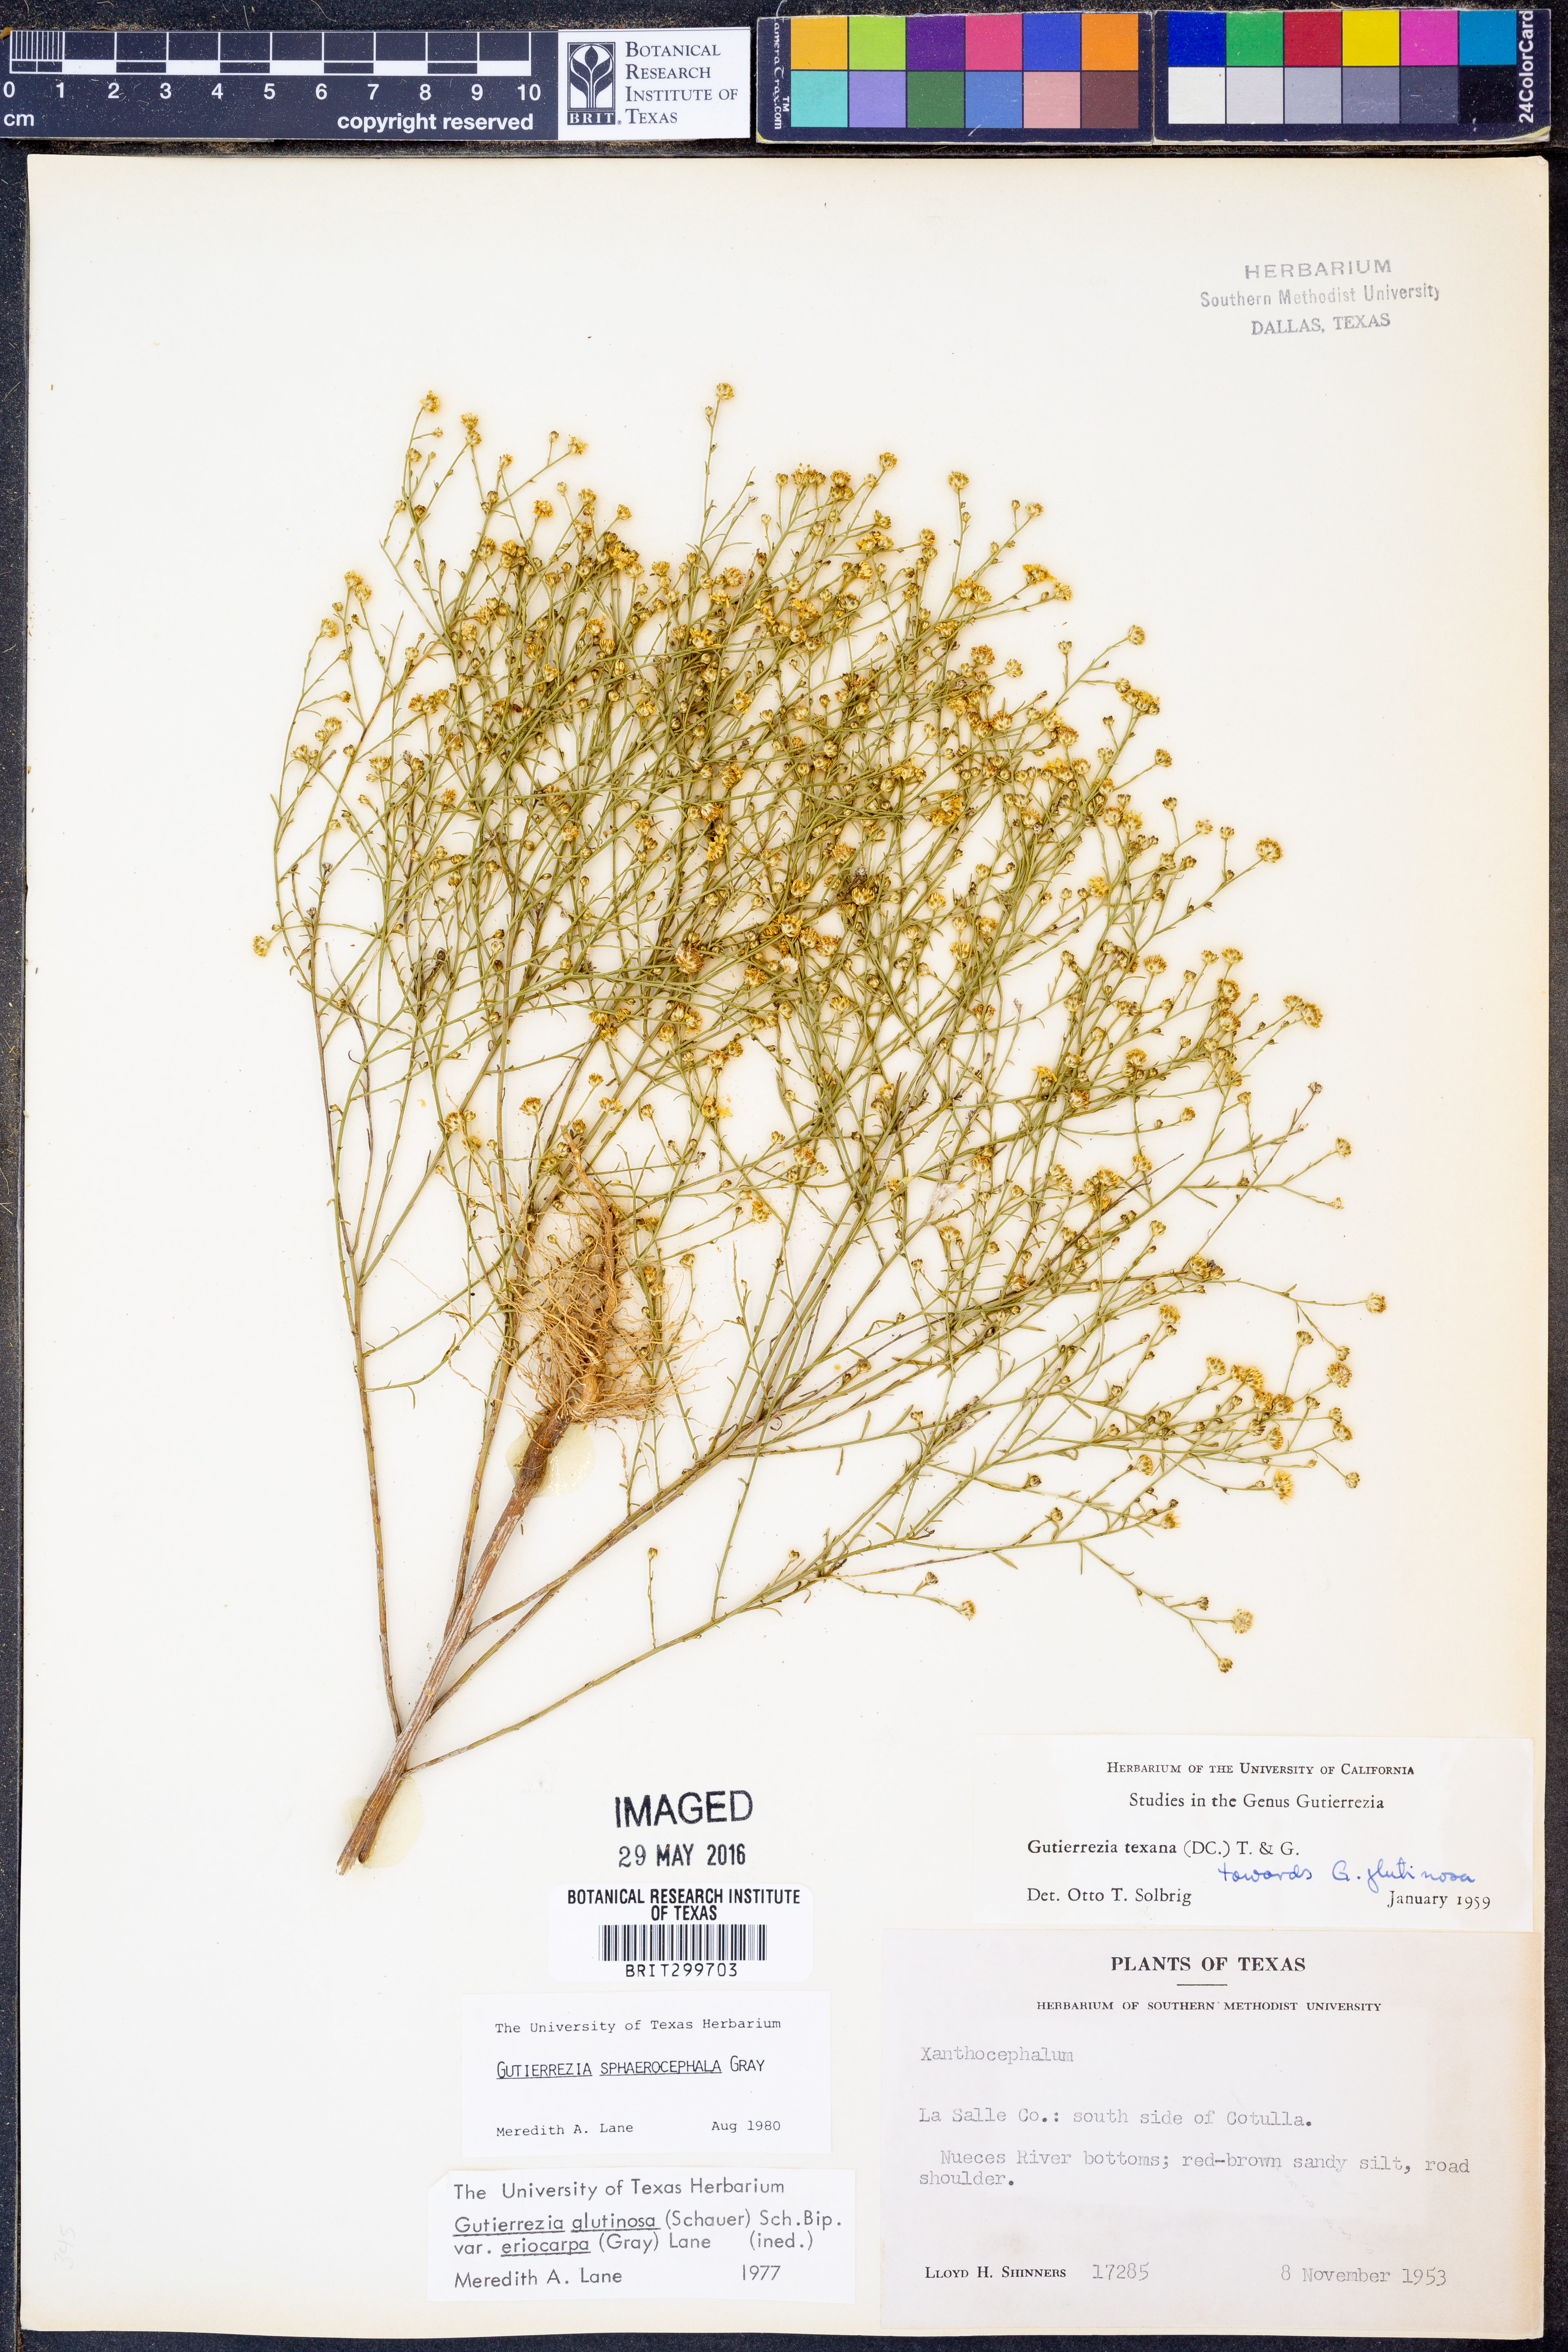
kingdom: Plantae
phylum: Tracheophyta
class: Magnoliopsida
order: Asterales
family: Asteraceae
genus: Gutierrezia
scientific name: Gutierrezia sphaerocephala
